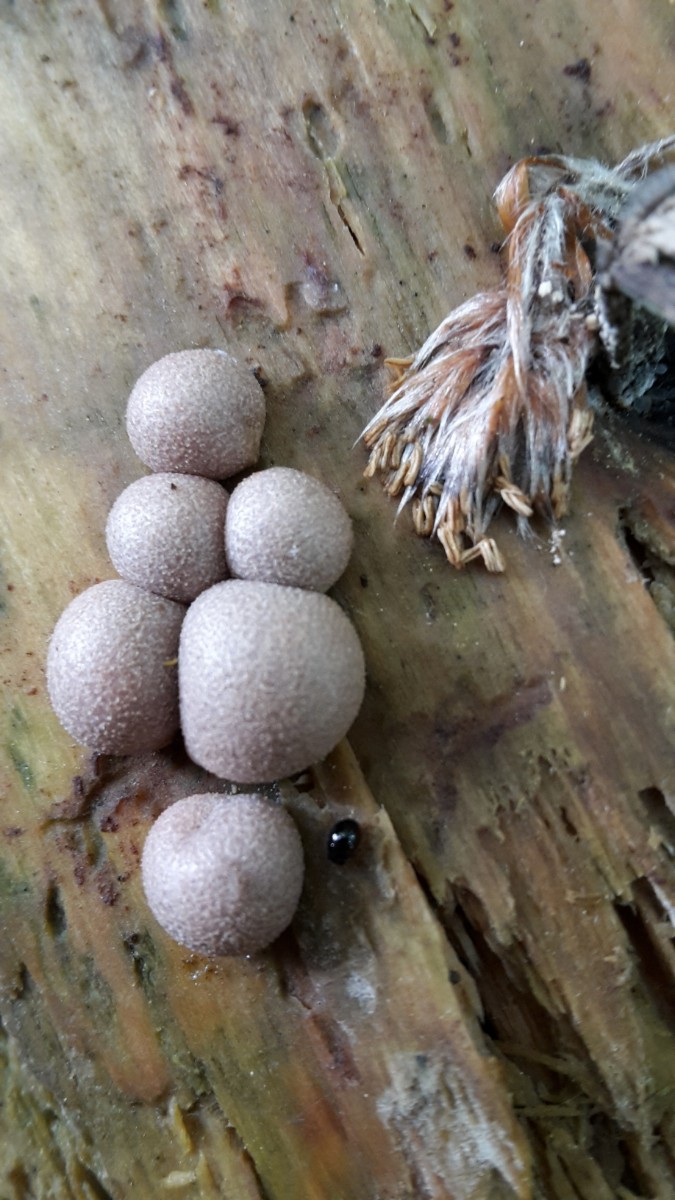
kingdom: Protozoa
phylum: Mycetozoa
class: Myxomycetes
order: Cribrariales
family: Tubiferaceae
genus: Lycogala
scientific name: Lycogala epidendrum
